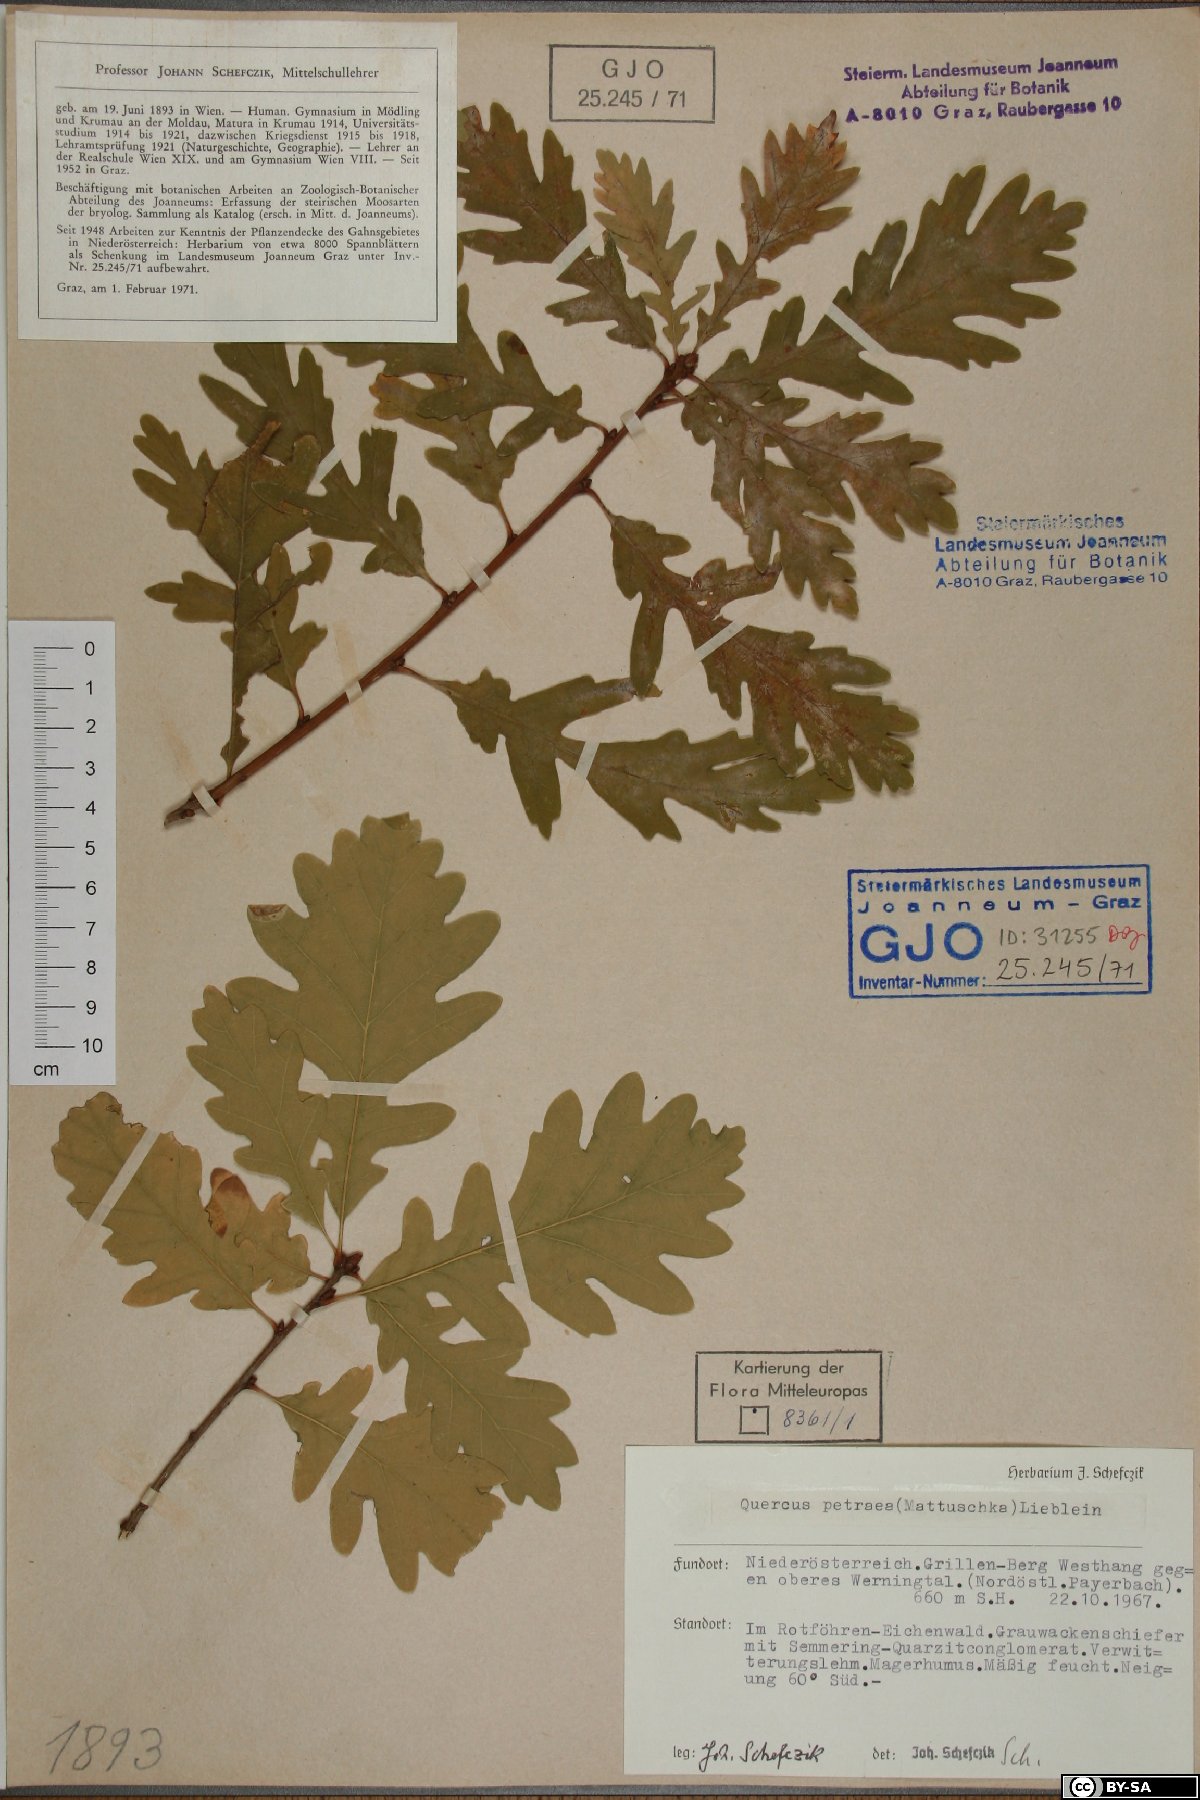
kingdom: Plantae
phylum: Tracheophyta
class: Magnoliopsida
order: Fagales
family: Fagaceae
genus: Quercus
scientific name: Quercus petraea
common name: Sessile oak
